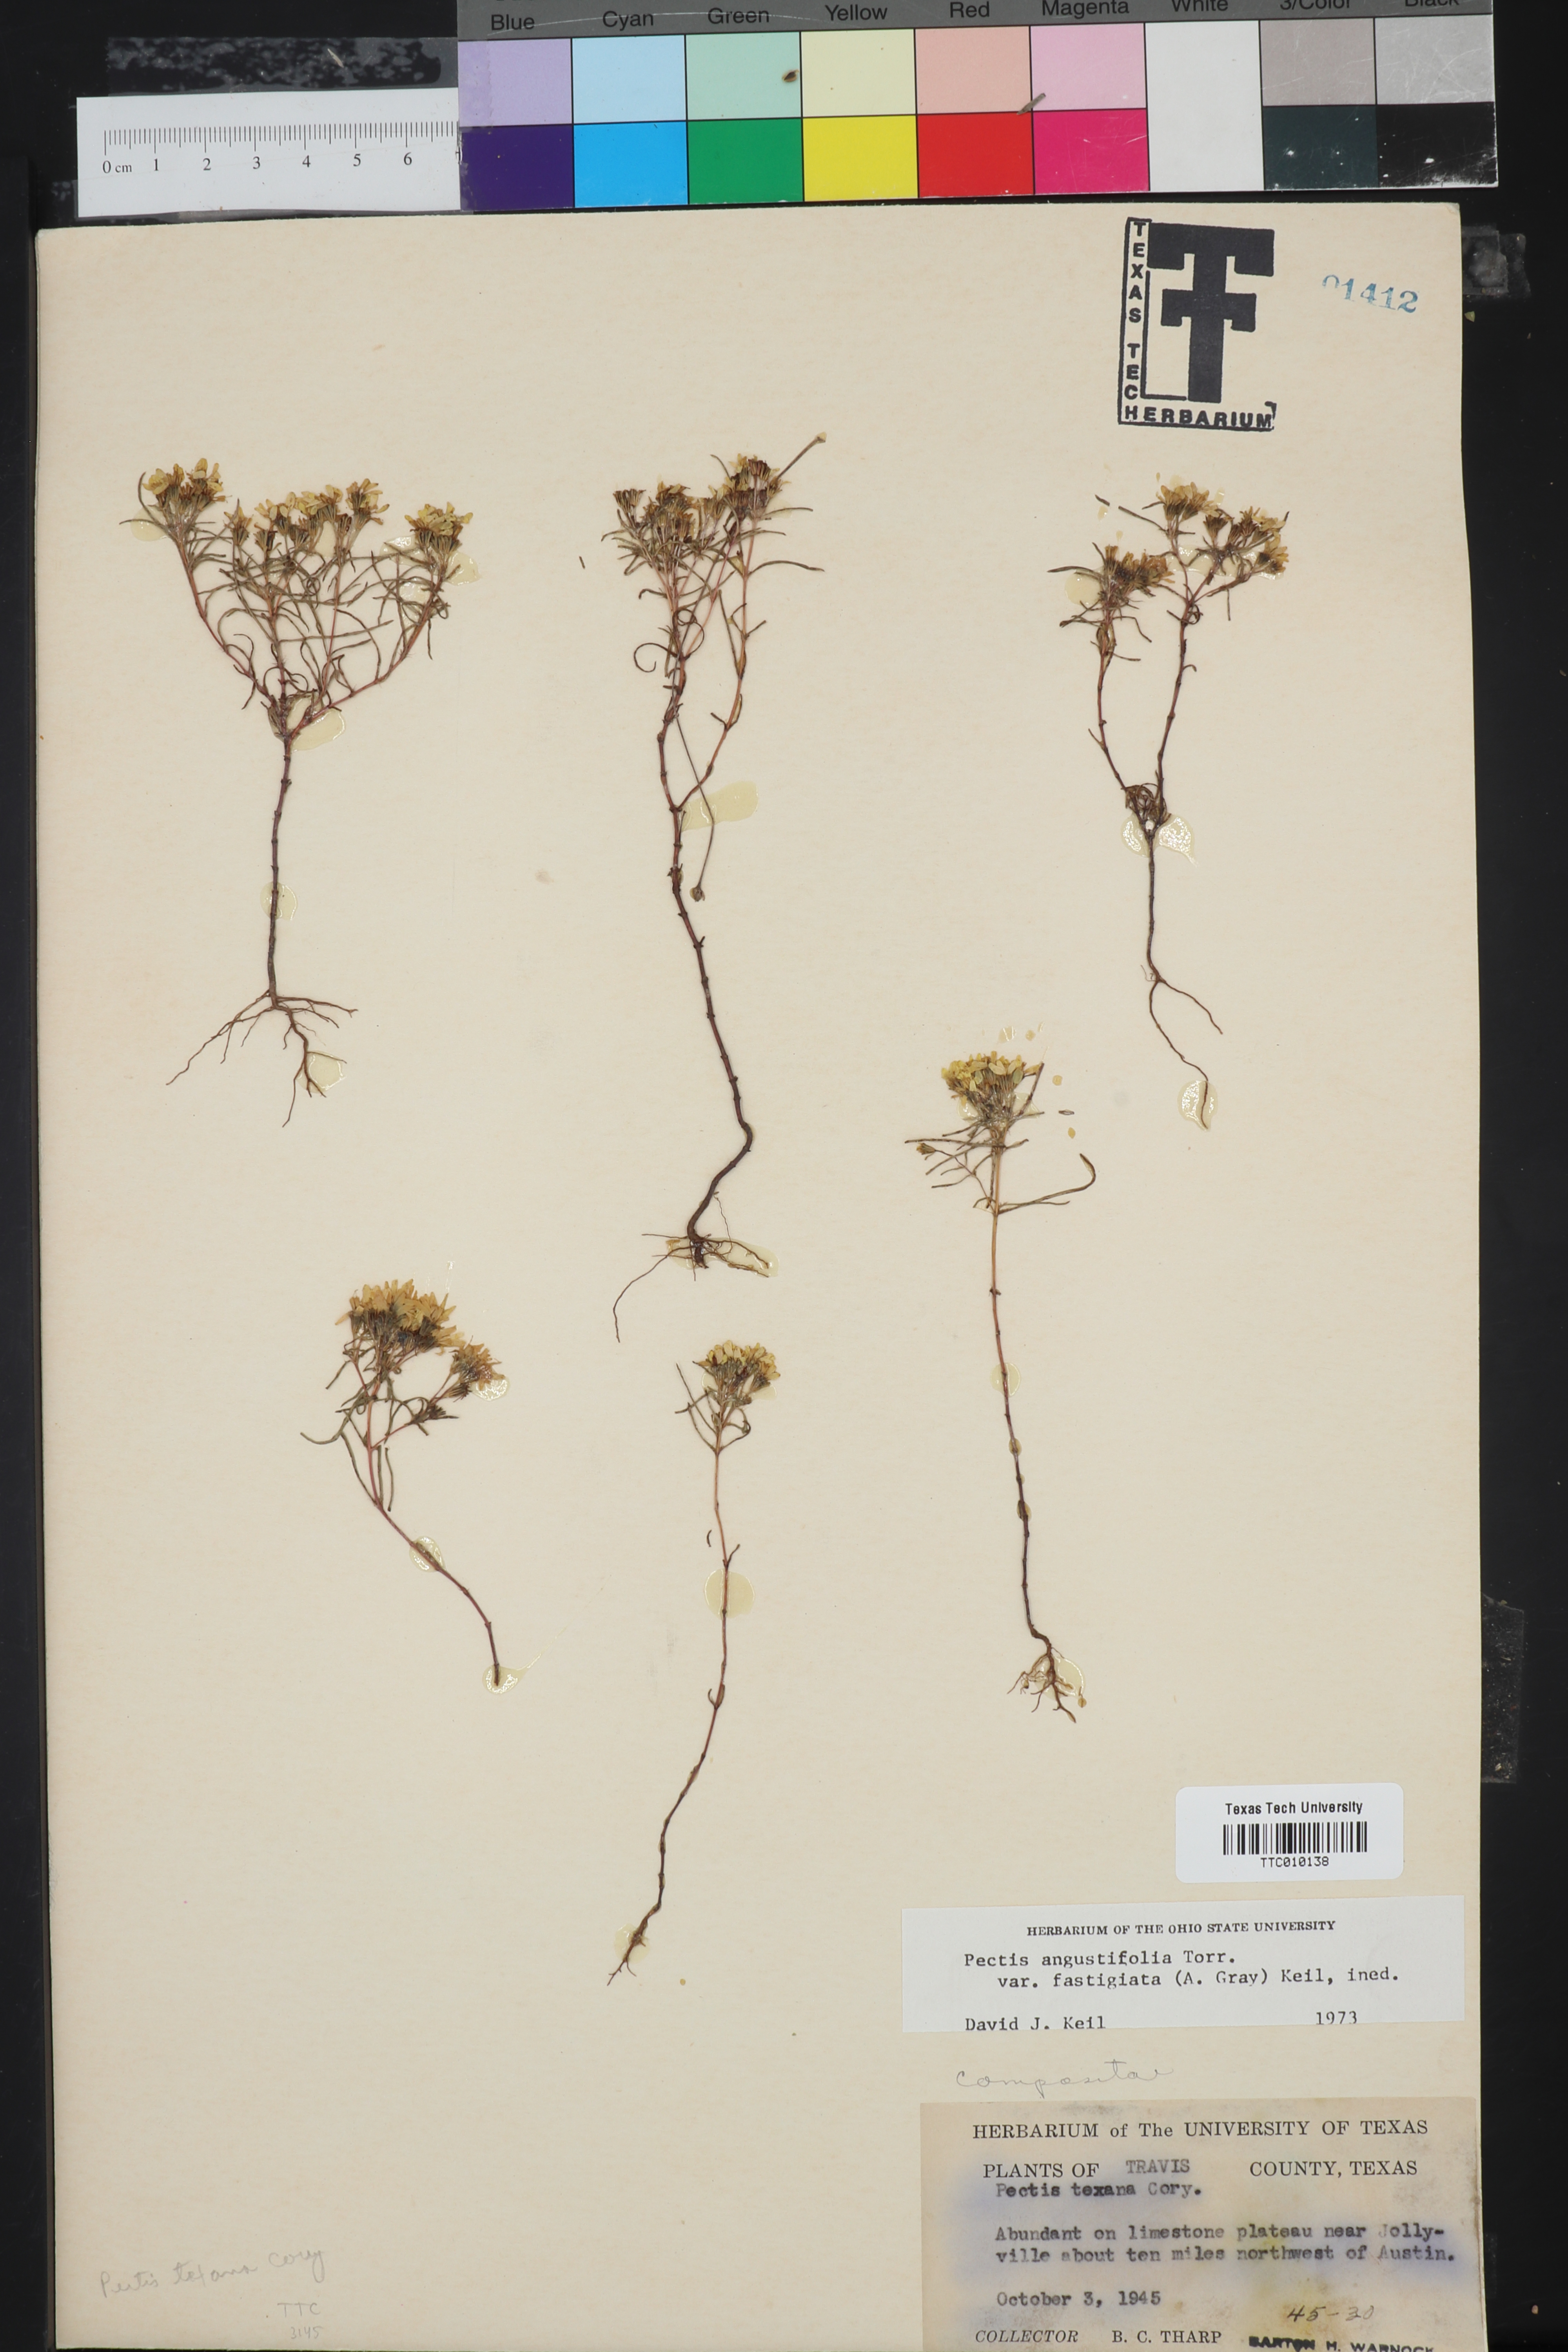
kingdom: Plantae
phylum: Tracheophyta
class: Magnoliopsida
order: Asterales
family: Asteraceae
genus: Pectis
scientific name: Pectis angustifolia
